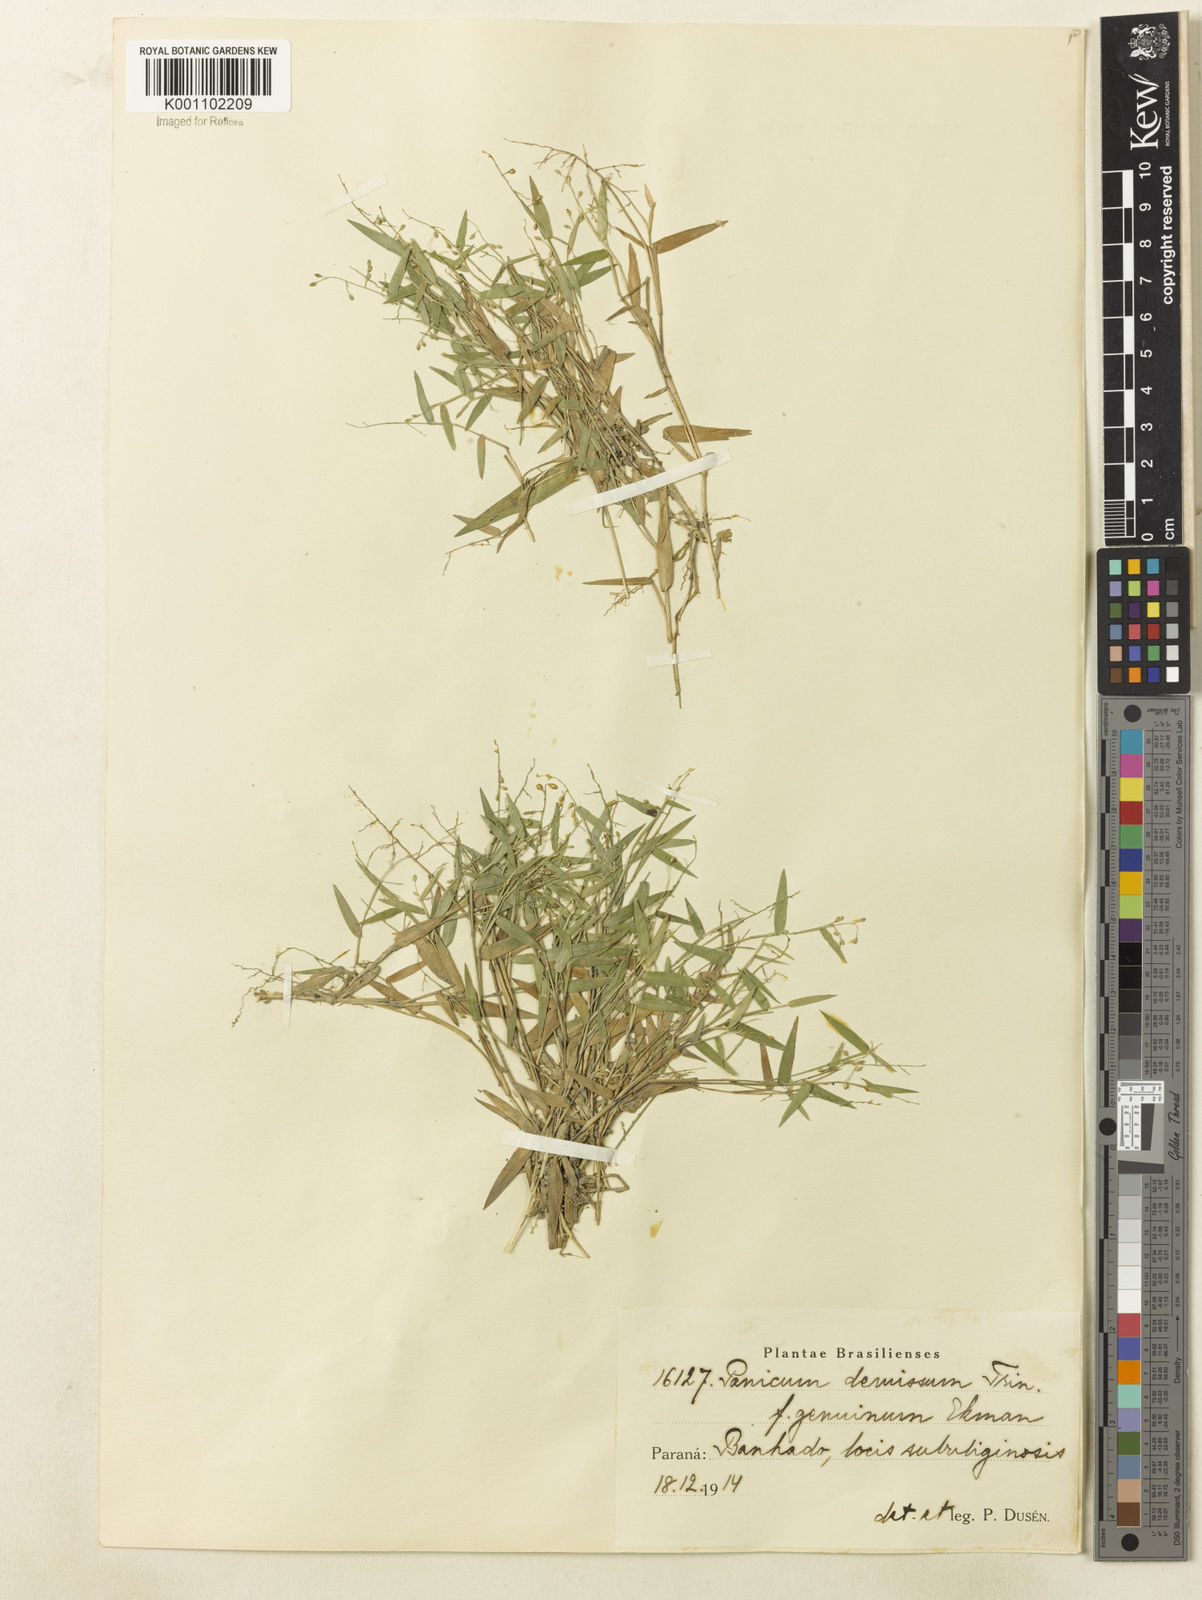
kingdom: Plantae
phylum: Tracheophyta
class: Liliopsida
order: Poales
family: Poaceae
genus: Dichanthelium
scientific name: Dichanthelium sabulorum
